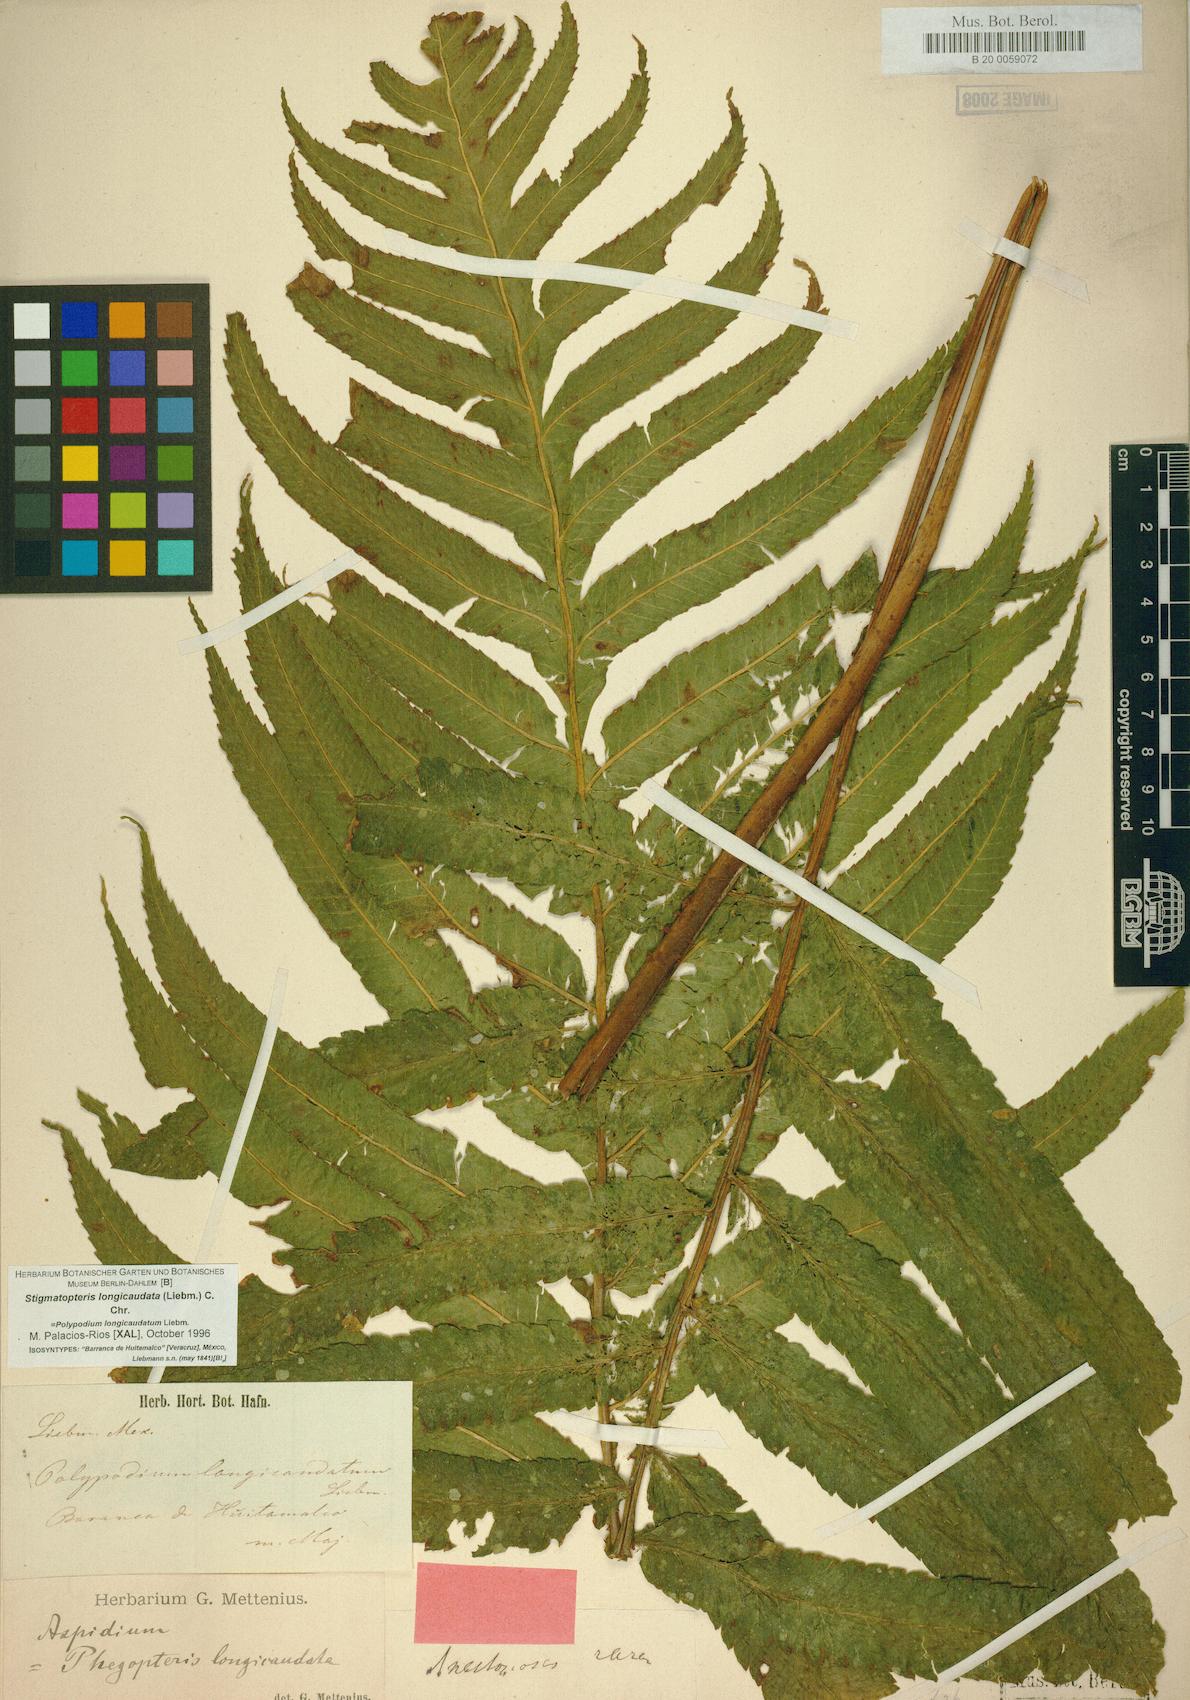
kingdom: Plantae
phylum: Tracheophyta
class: Polypodiopsida
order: Polypodiales
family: Dryopteridaceae
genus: Stigmatopteris
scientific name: Stigmatopteris longicaudata
